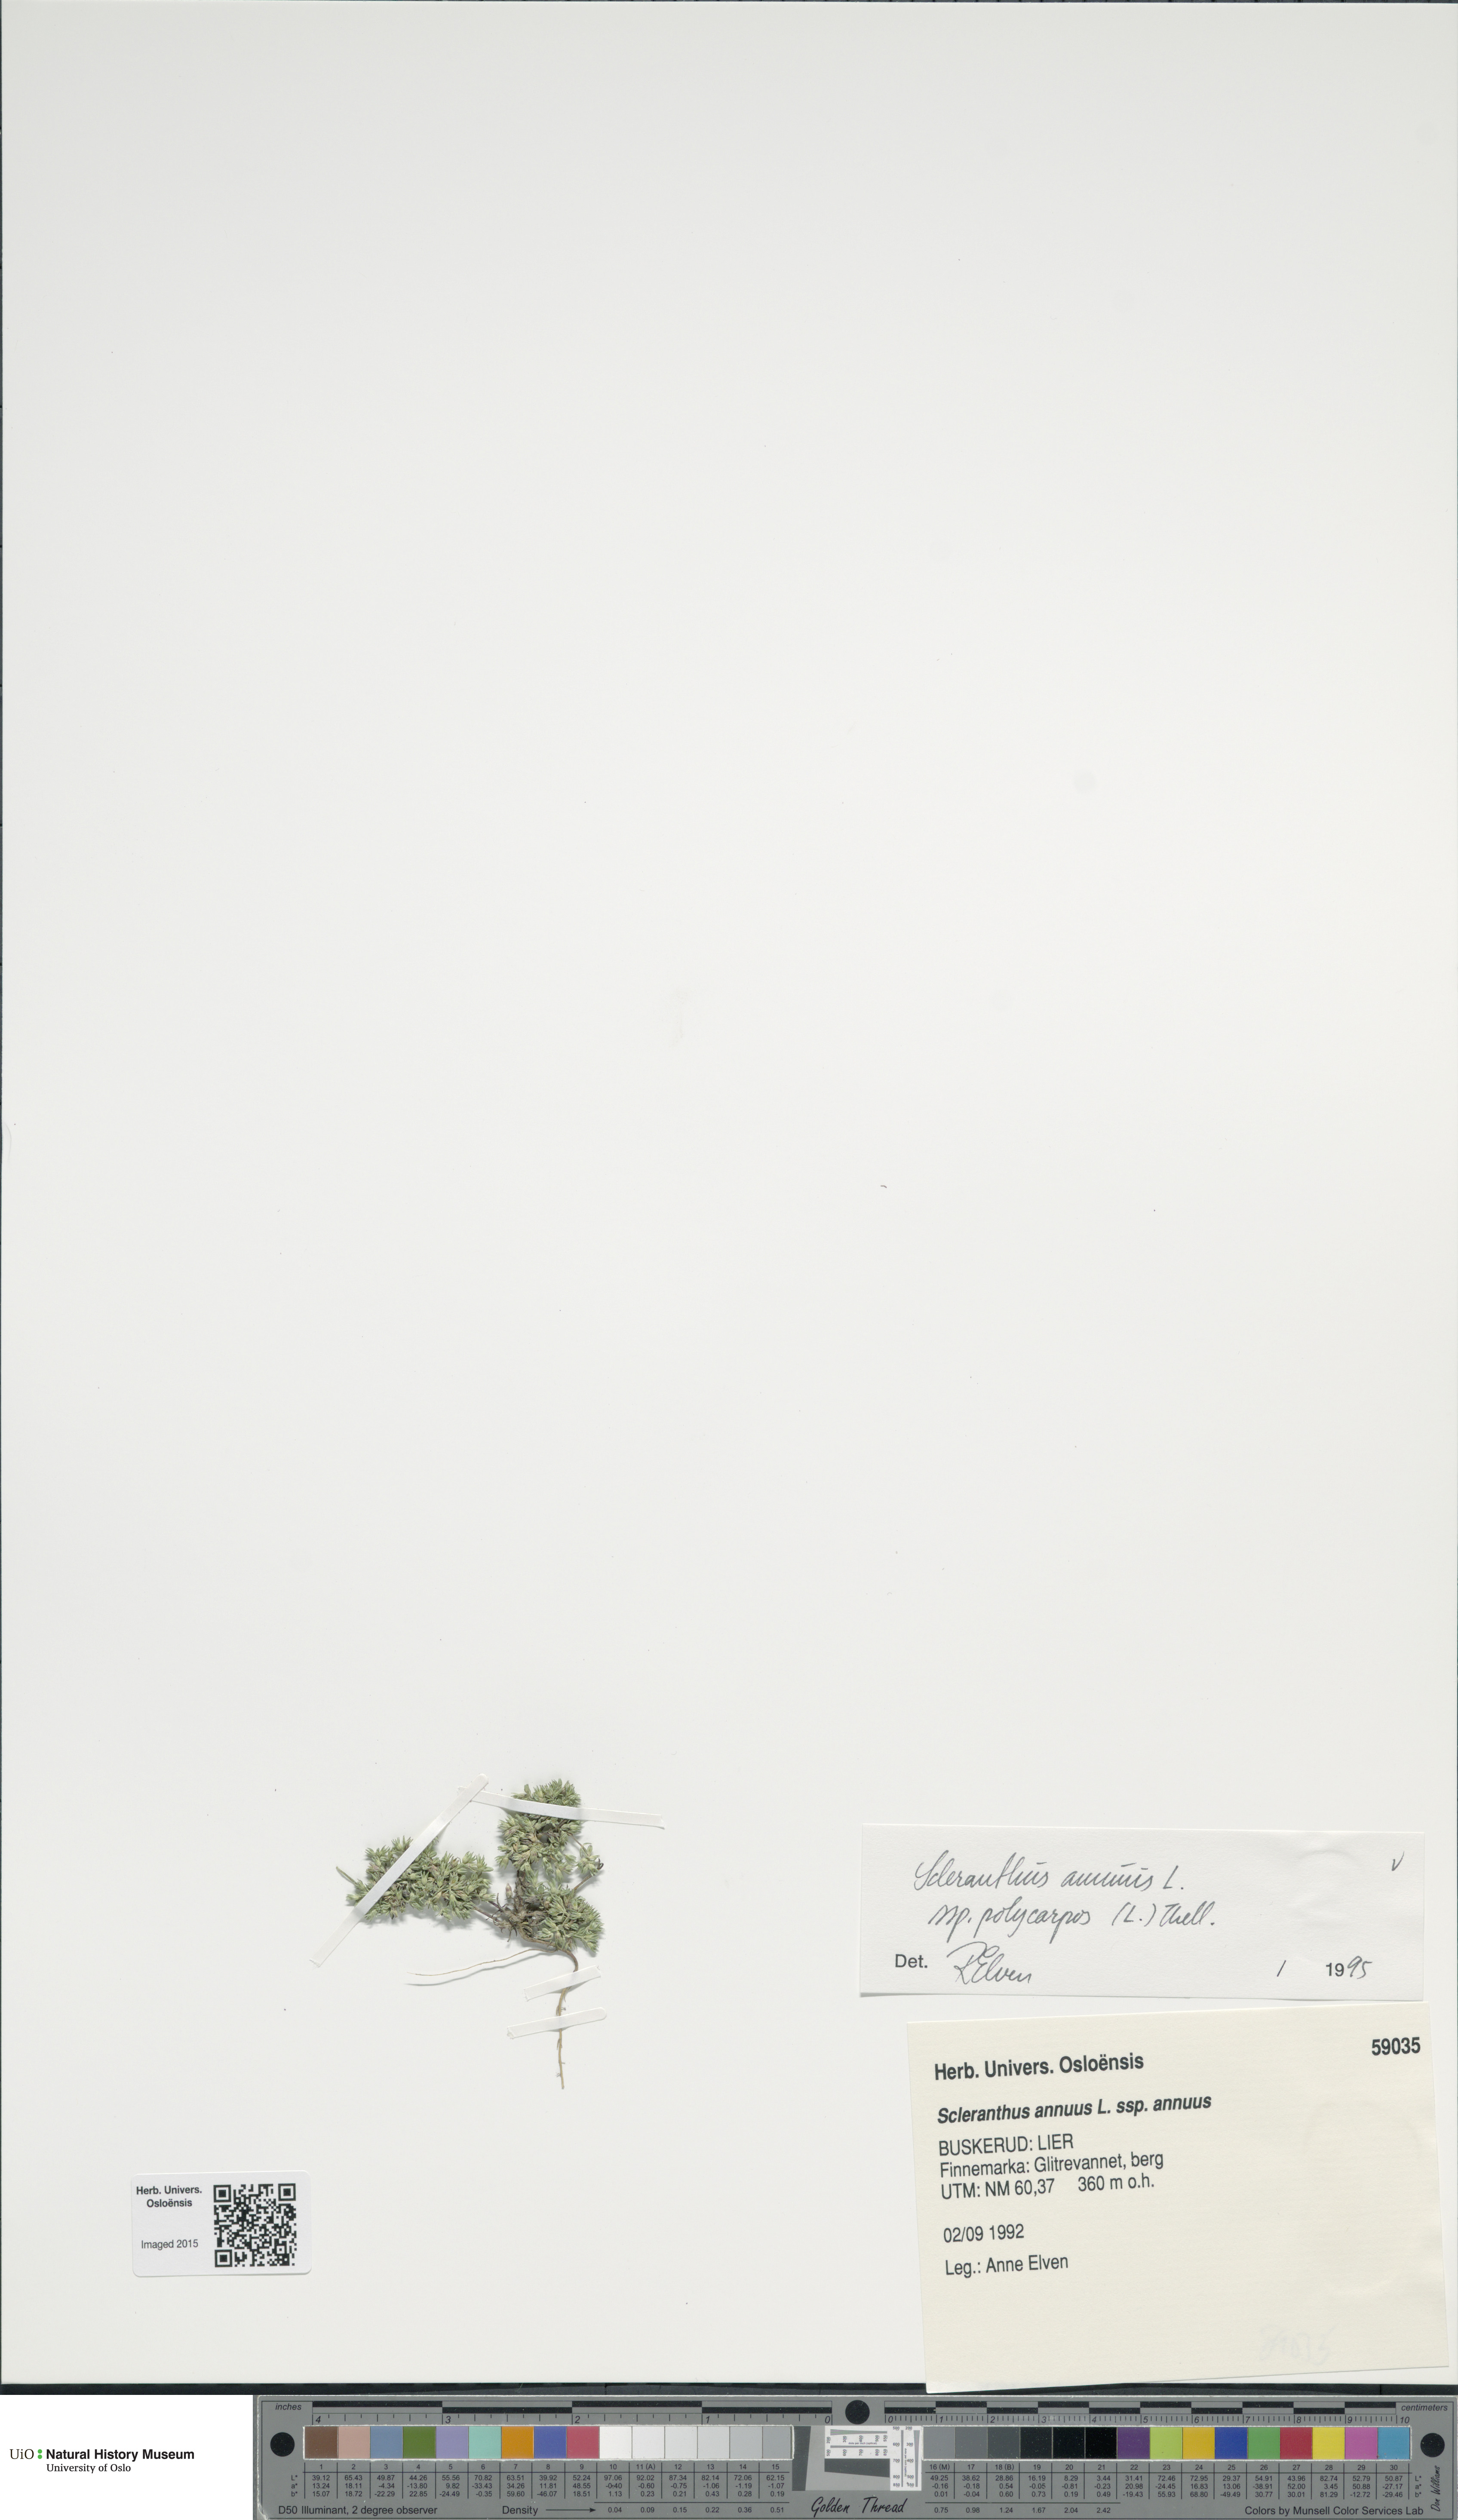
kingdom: Plantae
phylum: Tracheophyta
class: Magnoliopsida
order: Caryophyllales
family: Caryophyllaceae
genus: Scleranthus
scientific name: Scleranthus annuus
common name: Annual knawel
